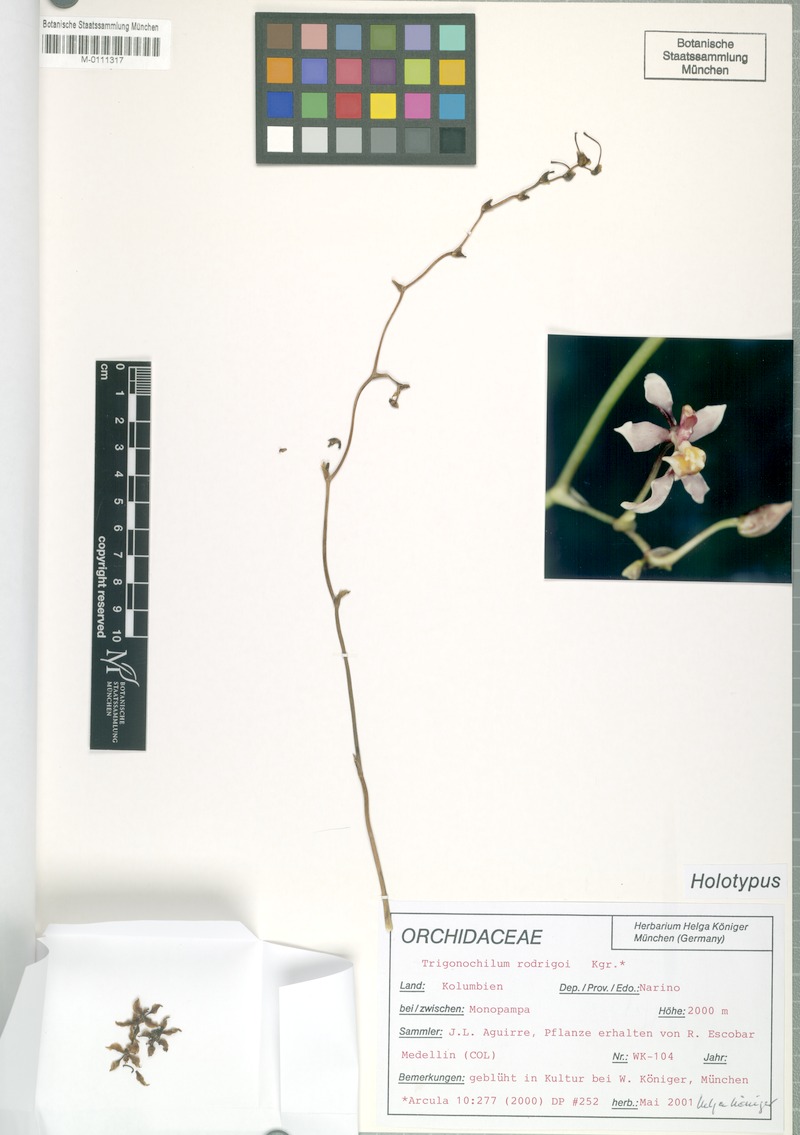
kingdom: Plantae
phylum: Tracheophyta
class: Liliopsida
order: Asparagales
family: Orchidaceae
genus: Cyrtochilum
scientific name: Cyrtochilum williamsianum
